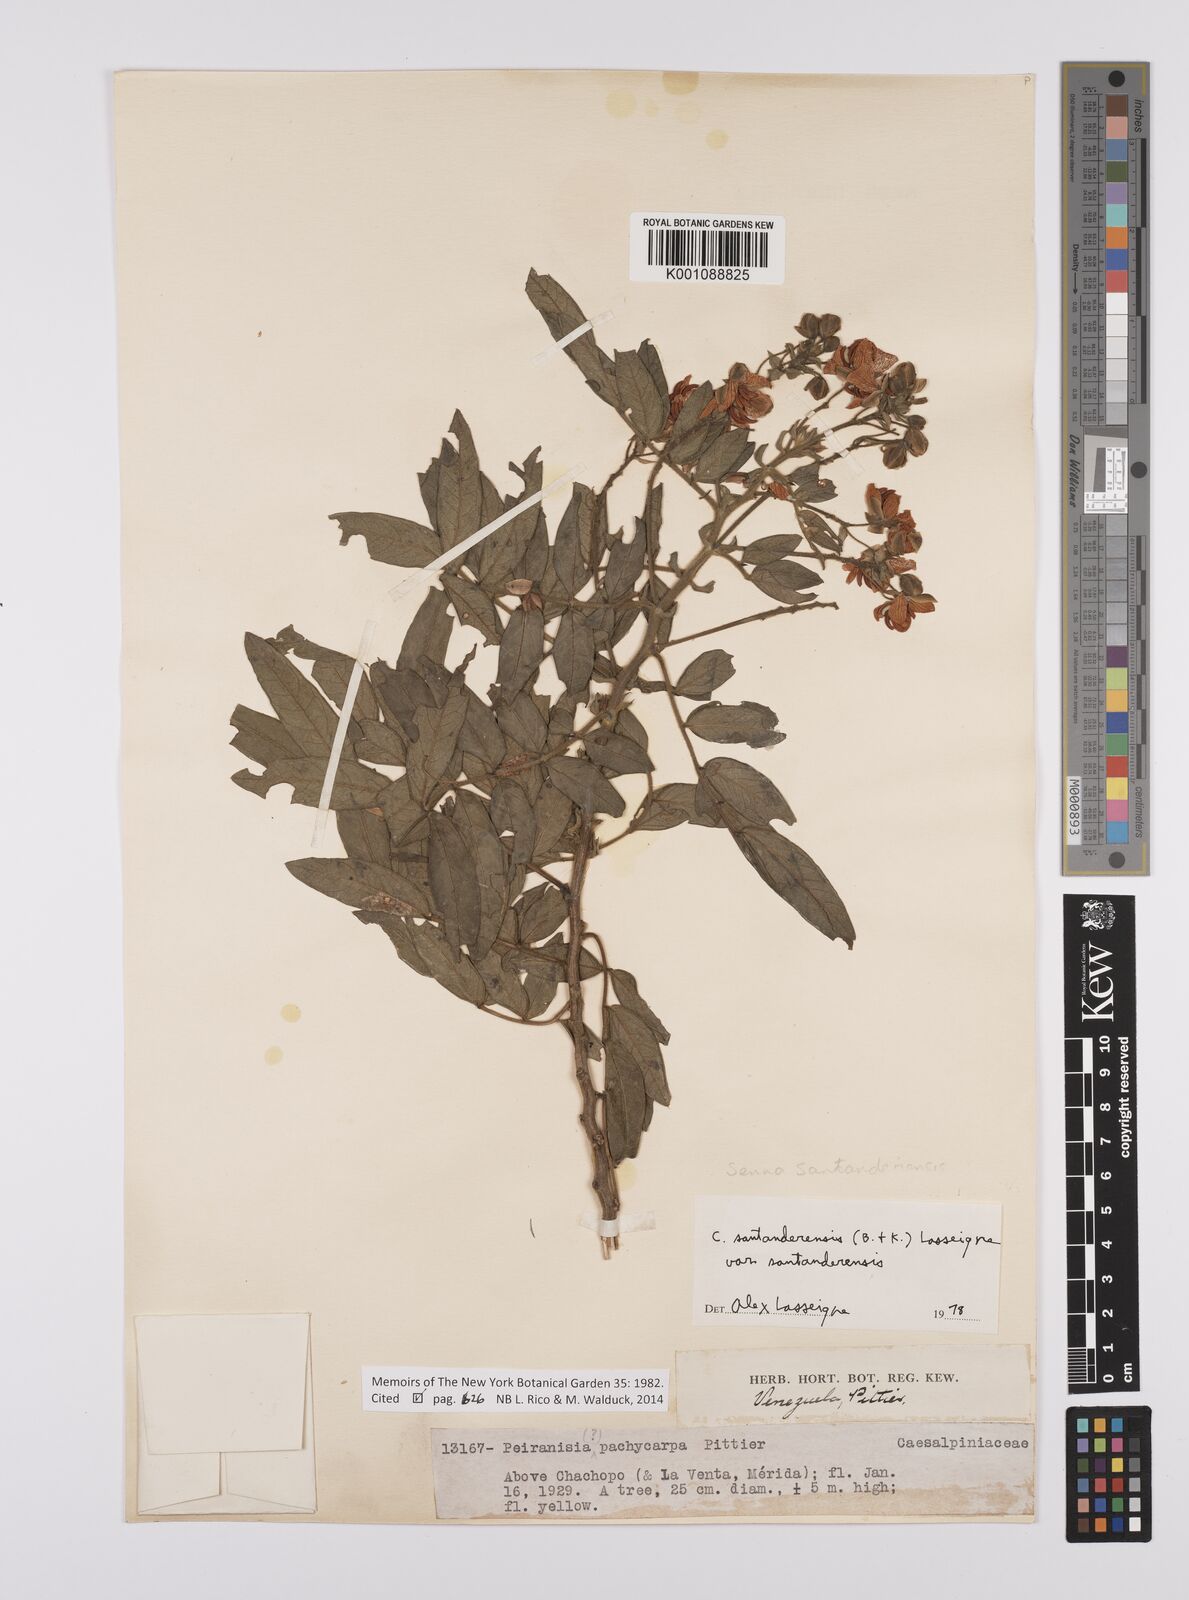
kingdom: Plantae
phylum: Tracheophyta
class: Magnoliopsida
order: Fabales
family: Fabaceae
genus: Senna
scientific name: Senna santanderensis
